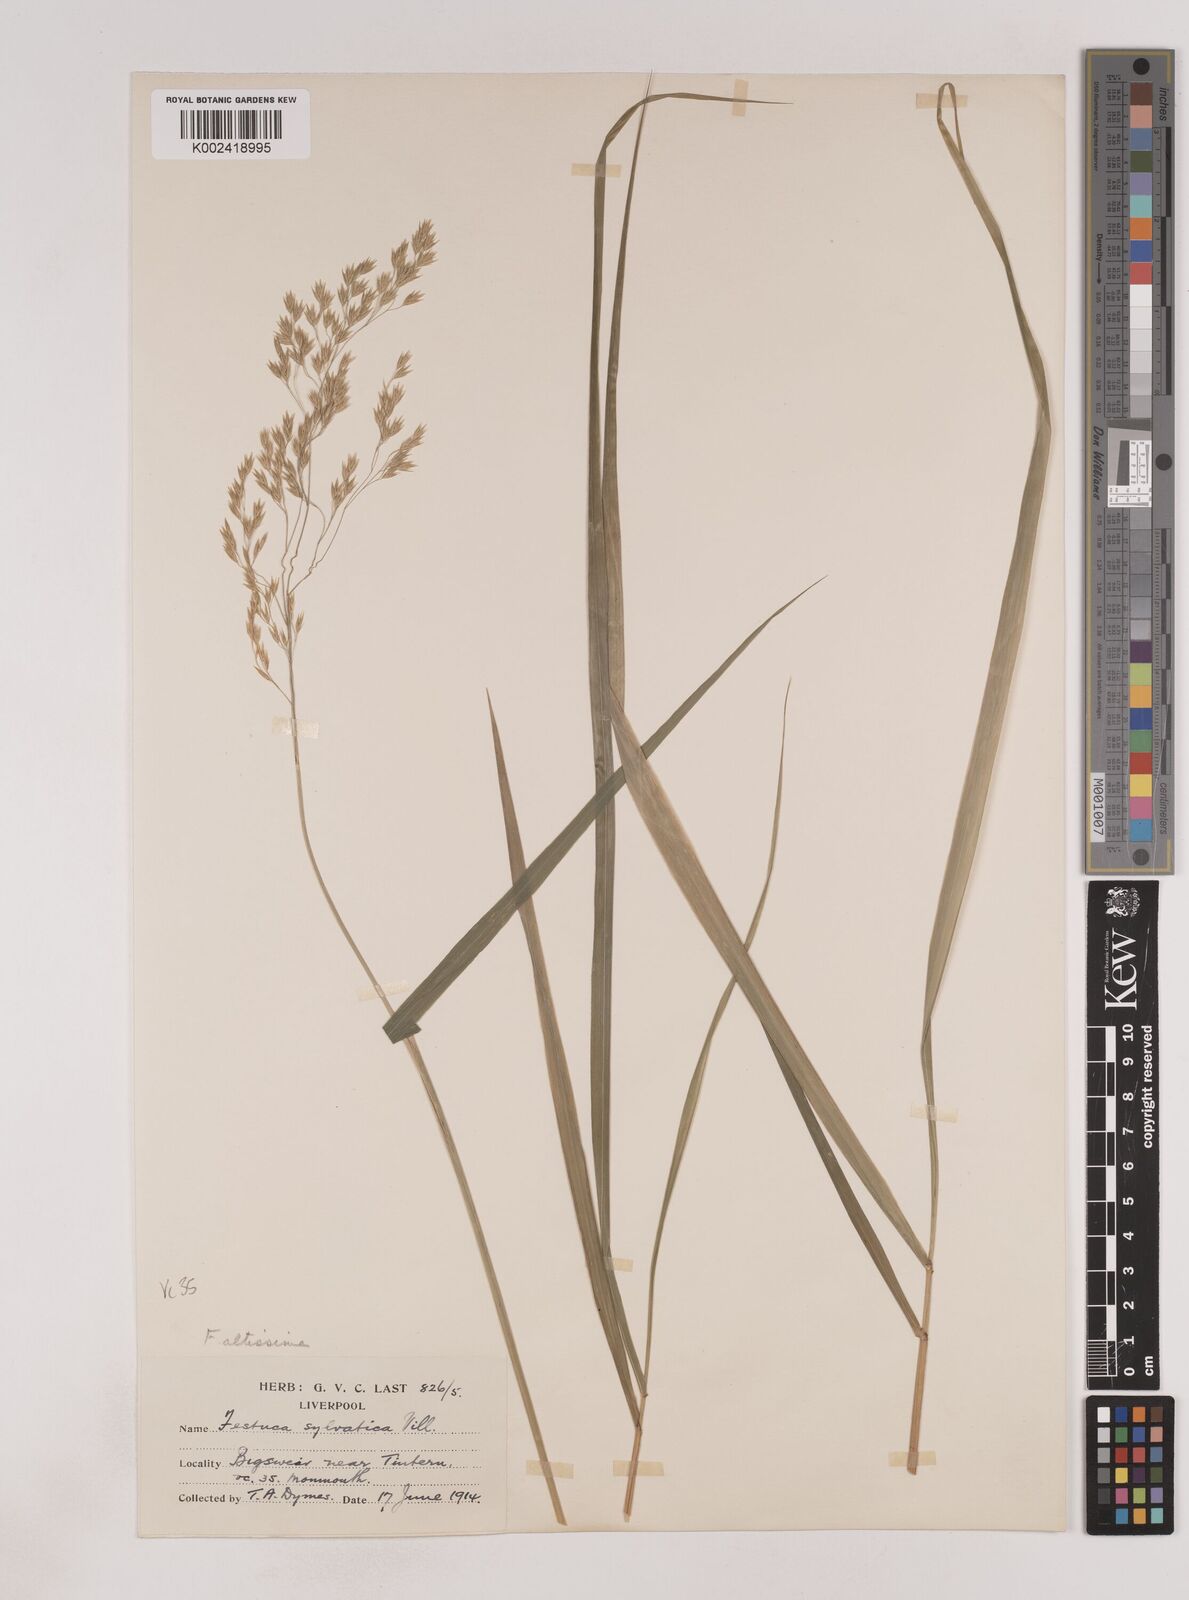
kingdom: Plantae
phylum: Tracheophyta
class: Liliopsida
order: Poales
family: Poaceae
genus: Festuca
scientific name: Festuca drymeja
